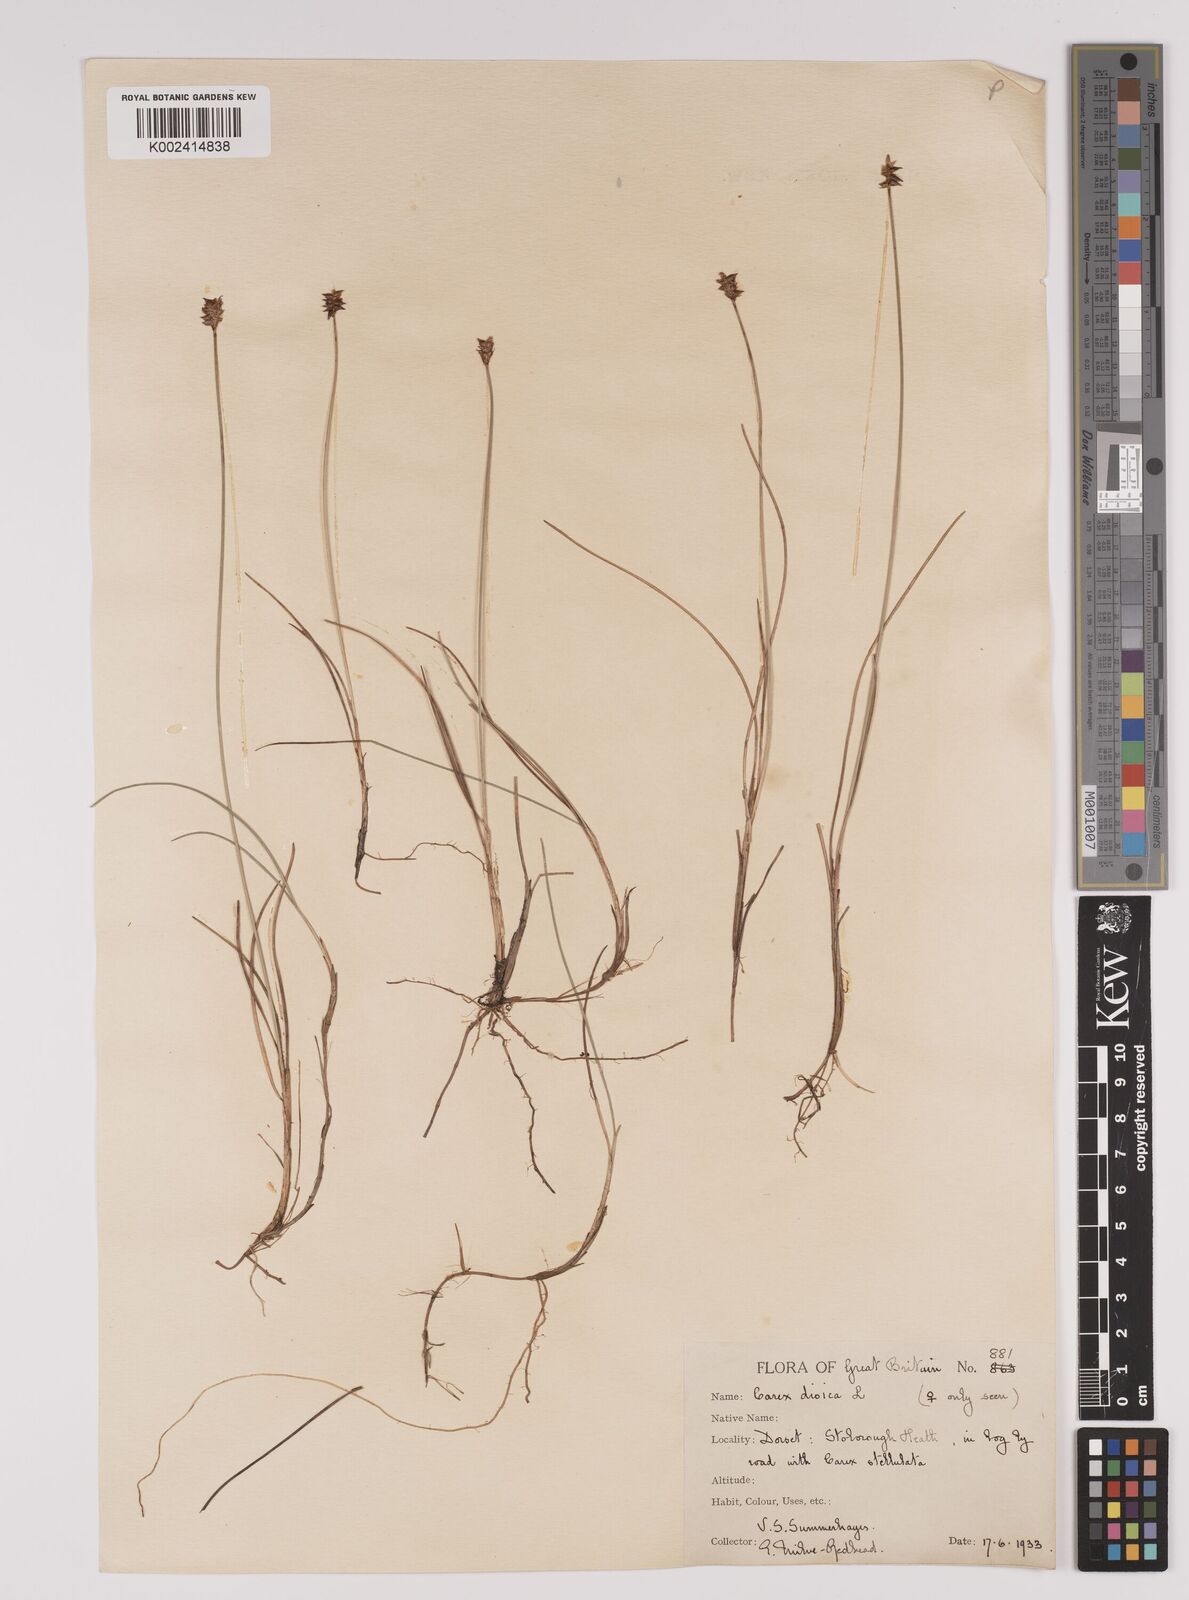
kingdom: Plantae
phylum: Tracheophyta
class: Liliopsida
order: Poales
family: Cyperaceae
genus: Carex
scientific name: Carex dioica
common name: Dioecious sedge
